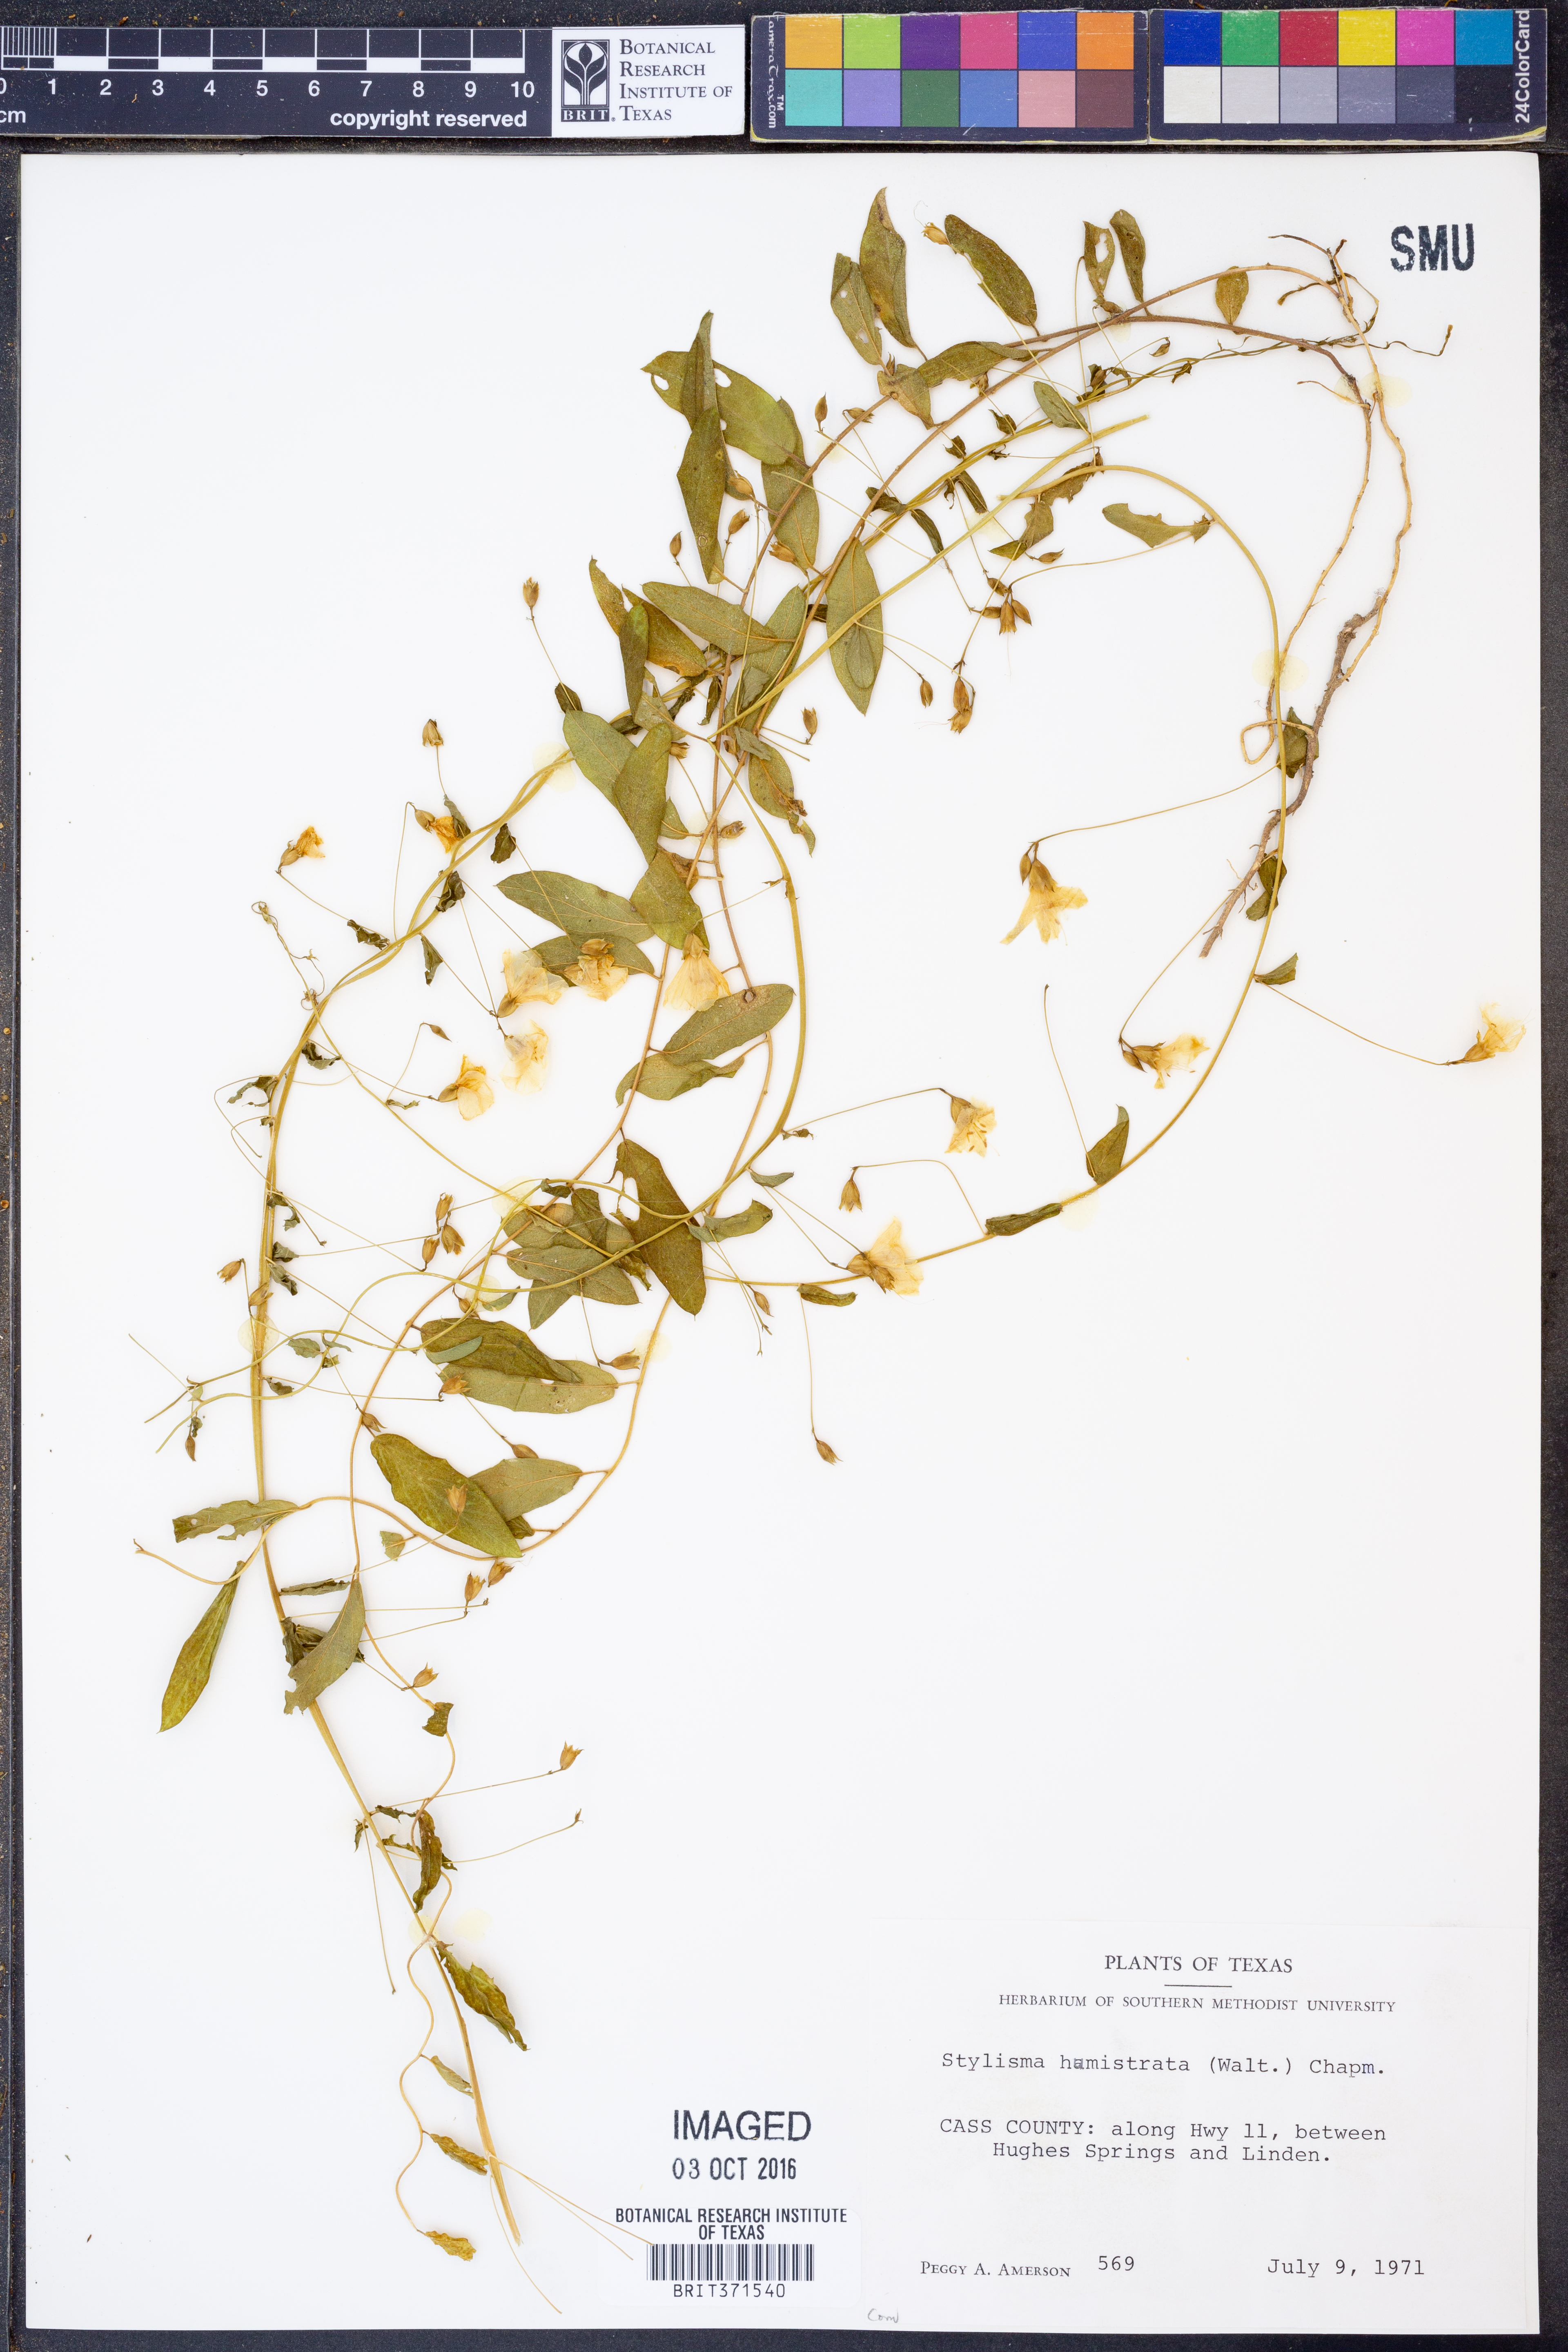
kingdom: Plantae
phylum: Tracheophyta
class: Magnoliopsida
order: Solanales
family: Convolvulaceae
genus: Stylisma
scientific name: Stylisma humistrata
